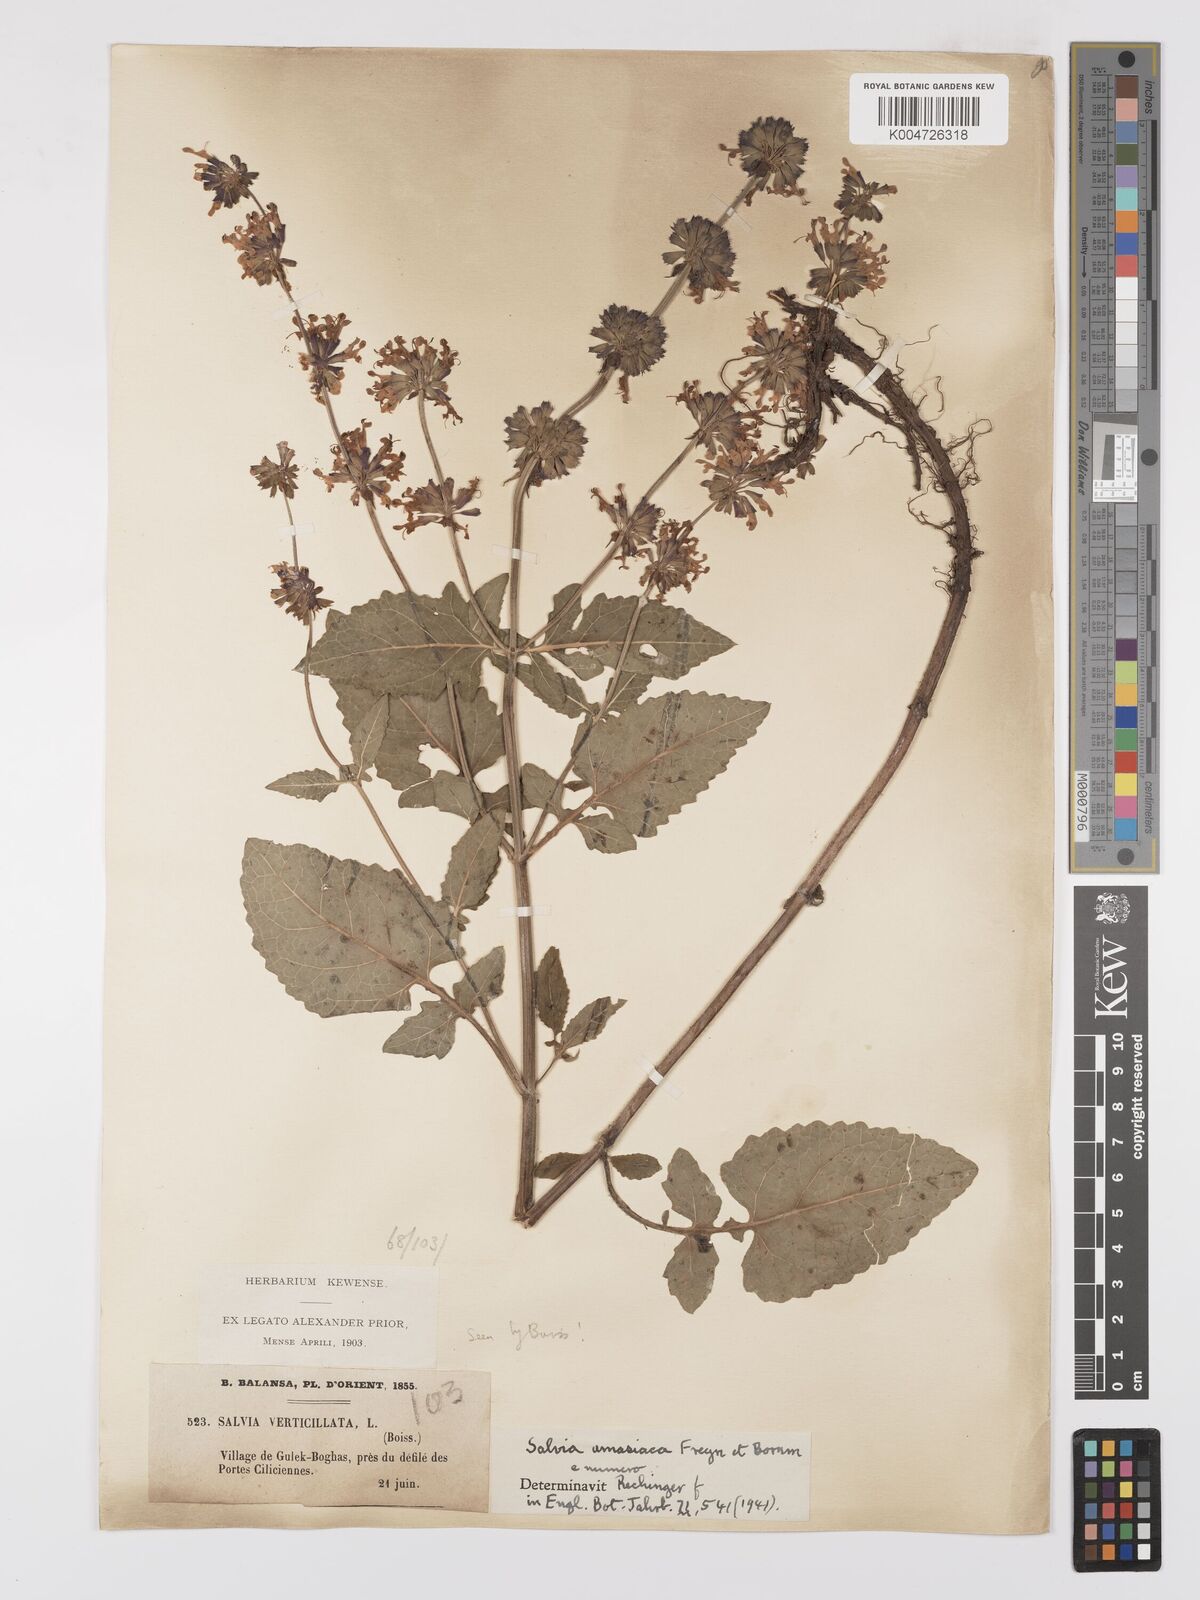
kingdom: Plantae
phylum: Tracheophyta
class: Magnoliopsida
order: Lamiales
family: Lamiaceae
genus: Salvia
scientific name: Salvia verticillata
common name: Whorled clary
